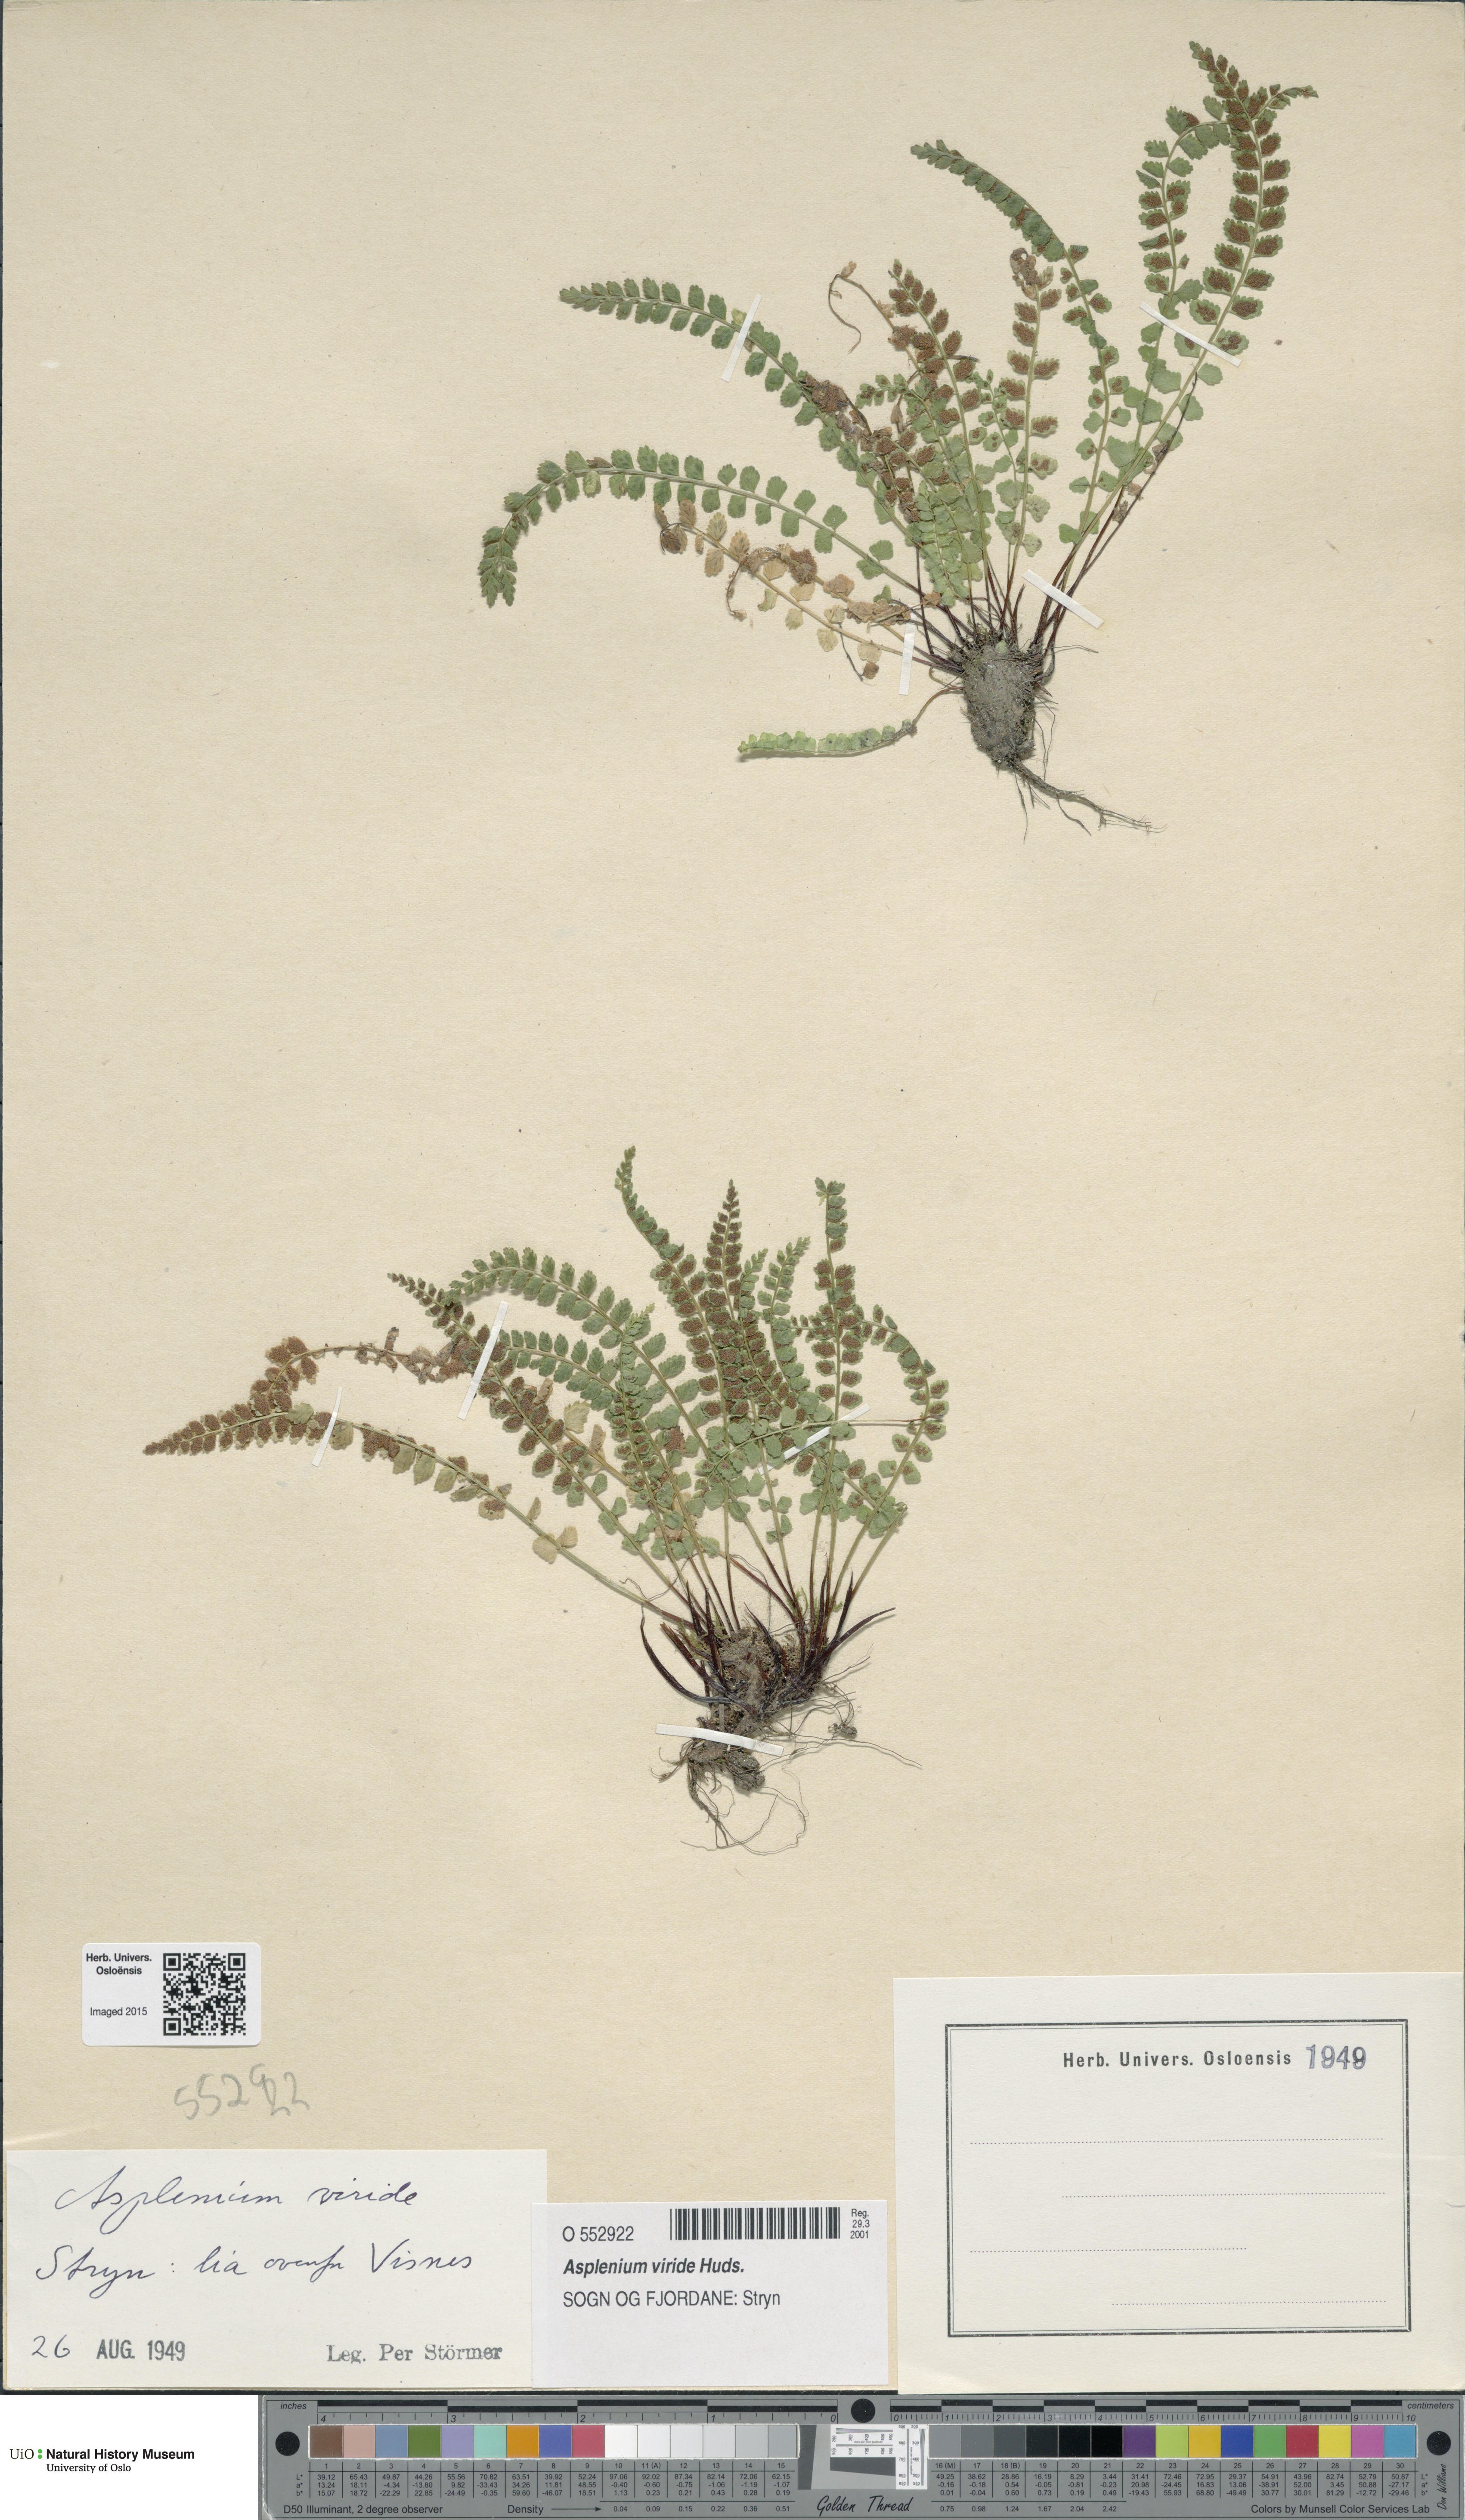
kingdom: Plantae
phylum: Tracheophyta
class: Polypodiopsida
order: Polypodiales
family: Aspleniaceae
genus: Asplenium
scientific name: Asplenium viride
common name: Green spleenwort
